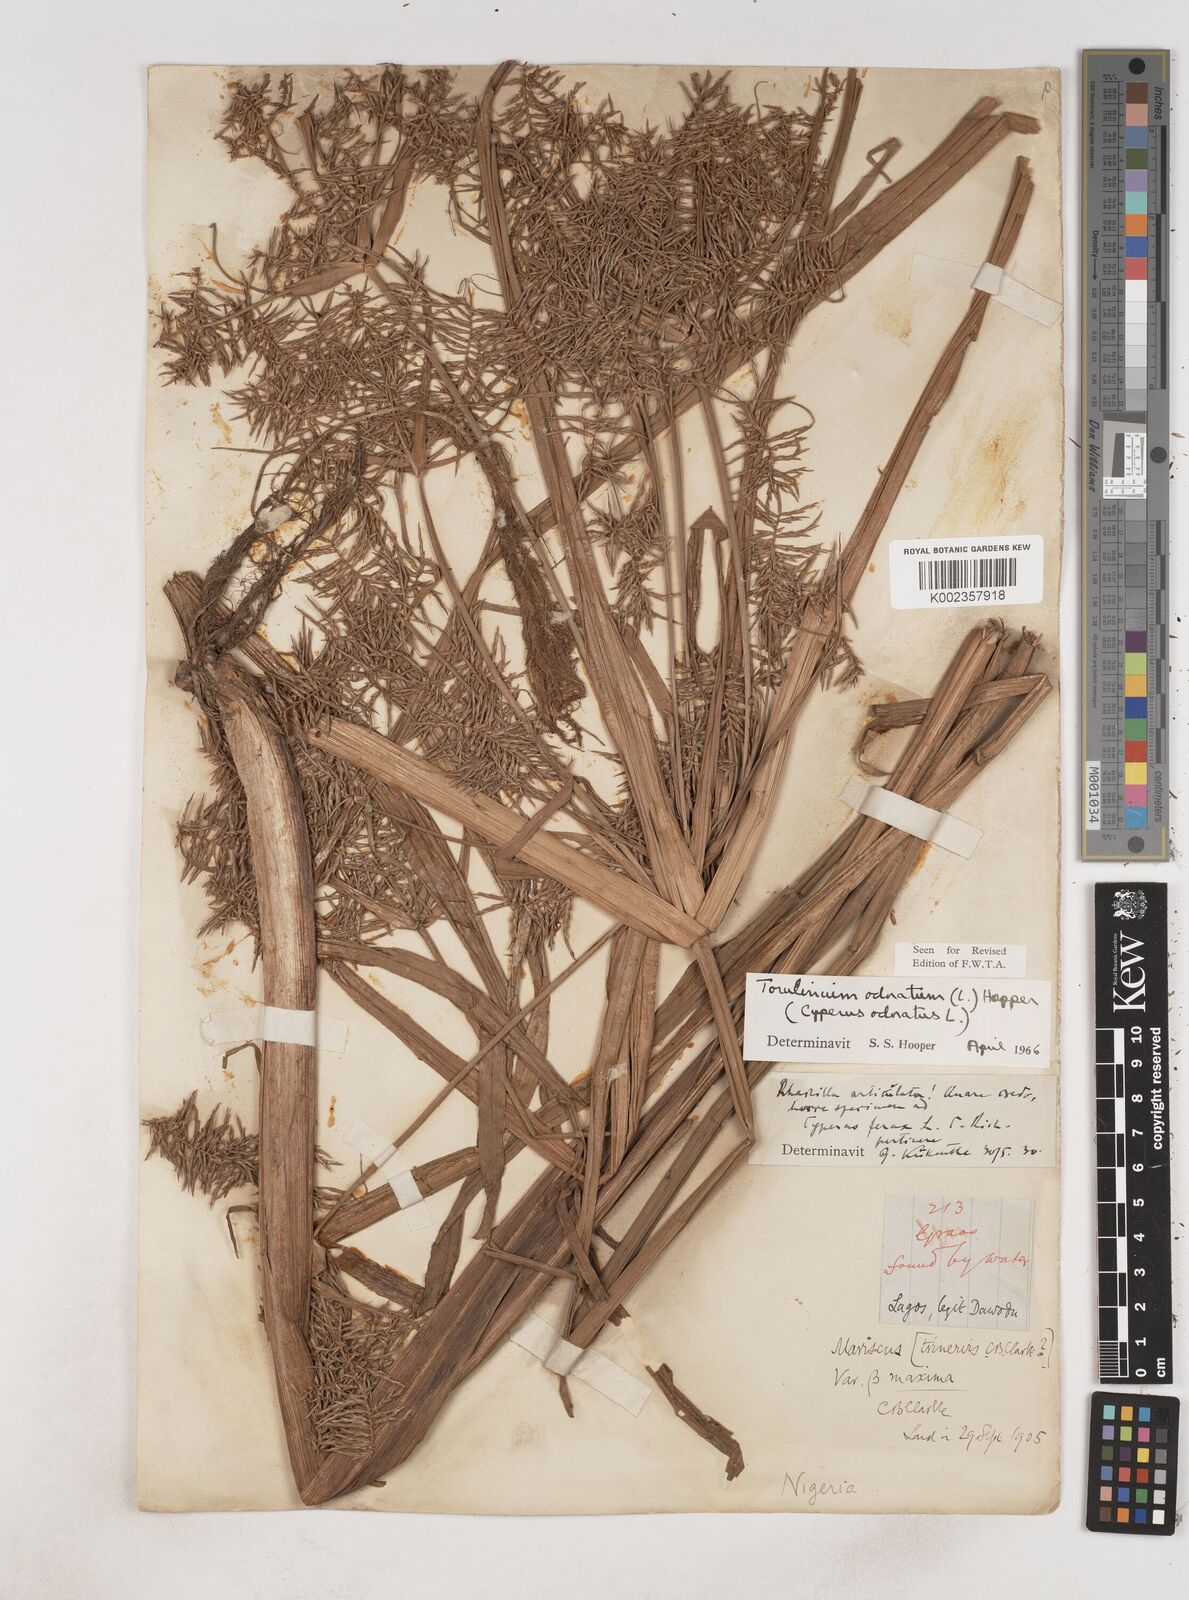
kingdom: Plantae
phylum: Tracheophyta
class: Liliopsida
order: Poales
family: Cyperaceae
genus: Cyperus
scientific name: Cyperus odoratus
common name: Fragrant flatsedge
